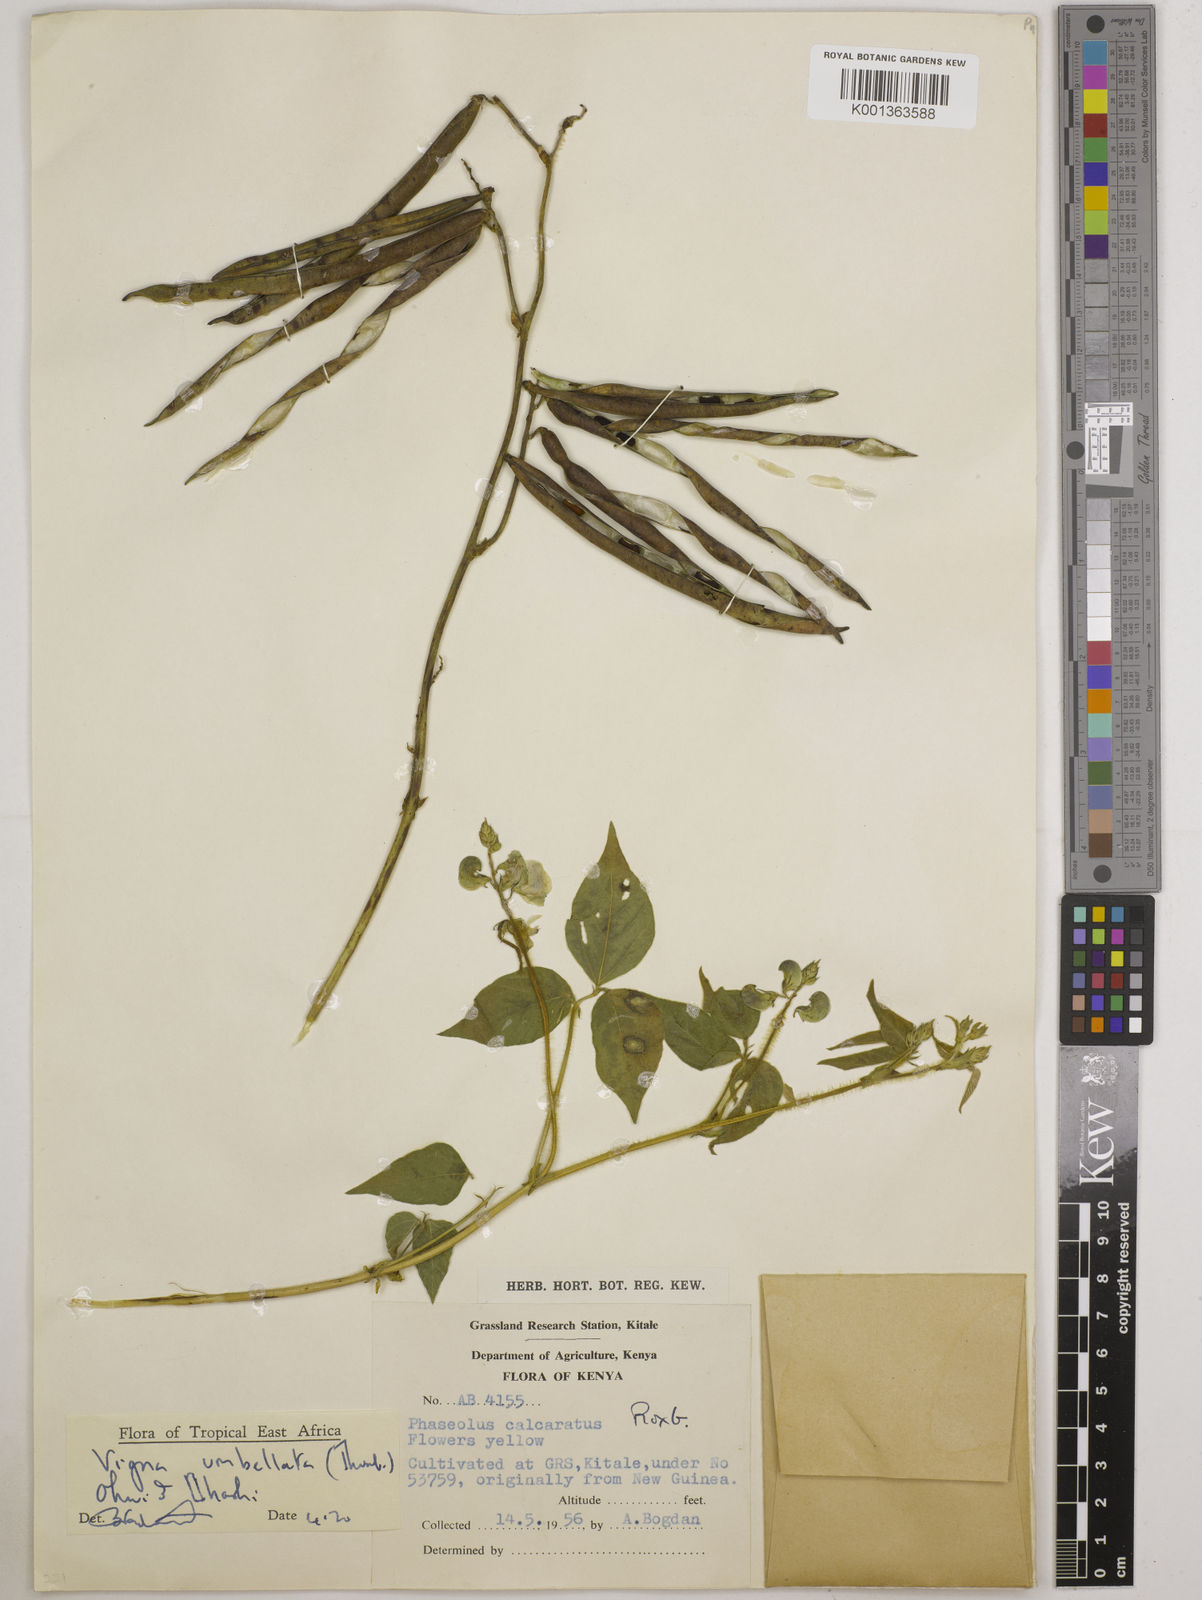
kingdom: Plantae
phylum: Tracheophyta
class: Magnoliopsida
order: Fabales
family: Fabaceae
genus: Vigna
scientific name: Vigna umbellata
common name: Oriental-bean
